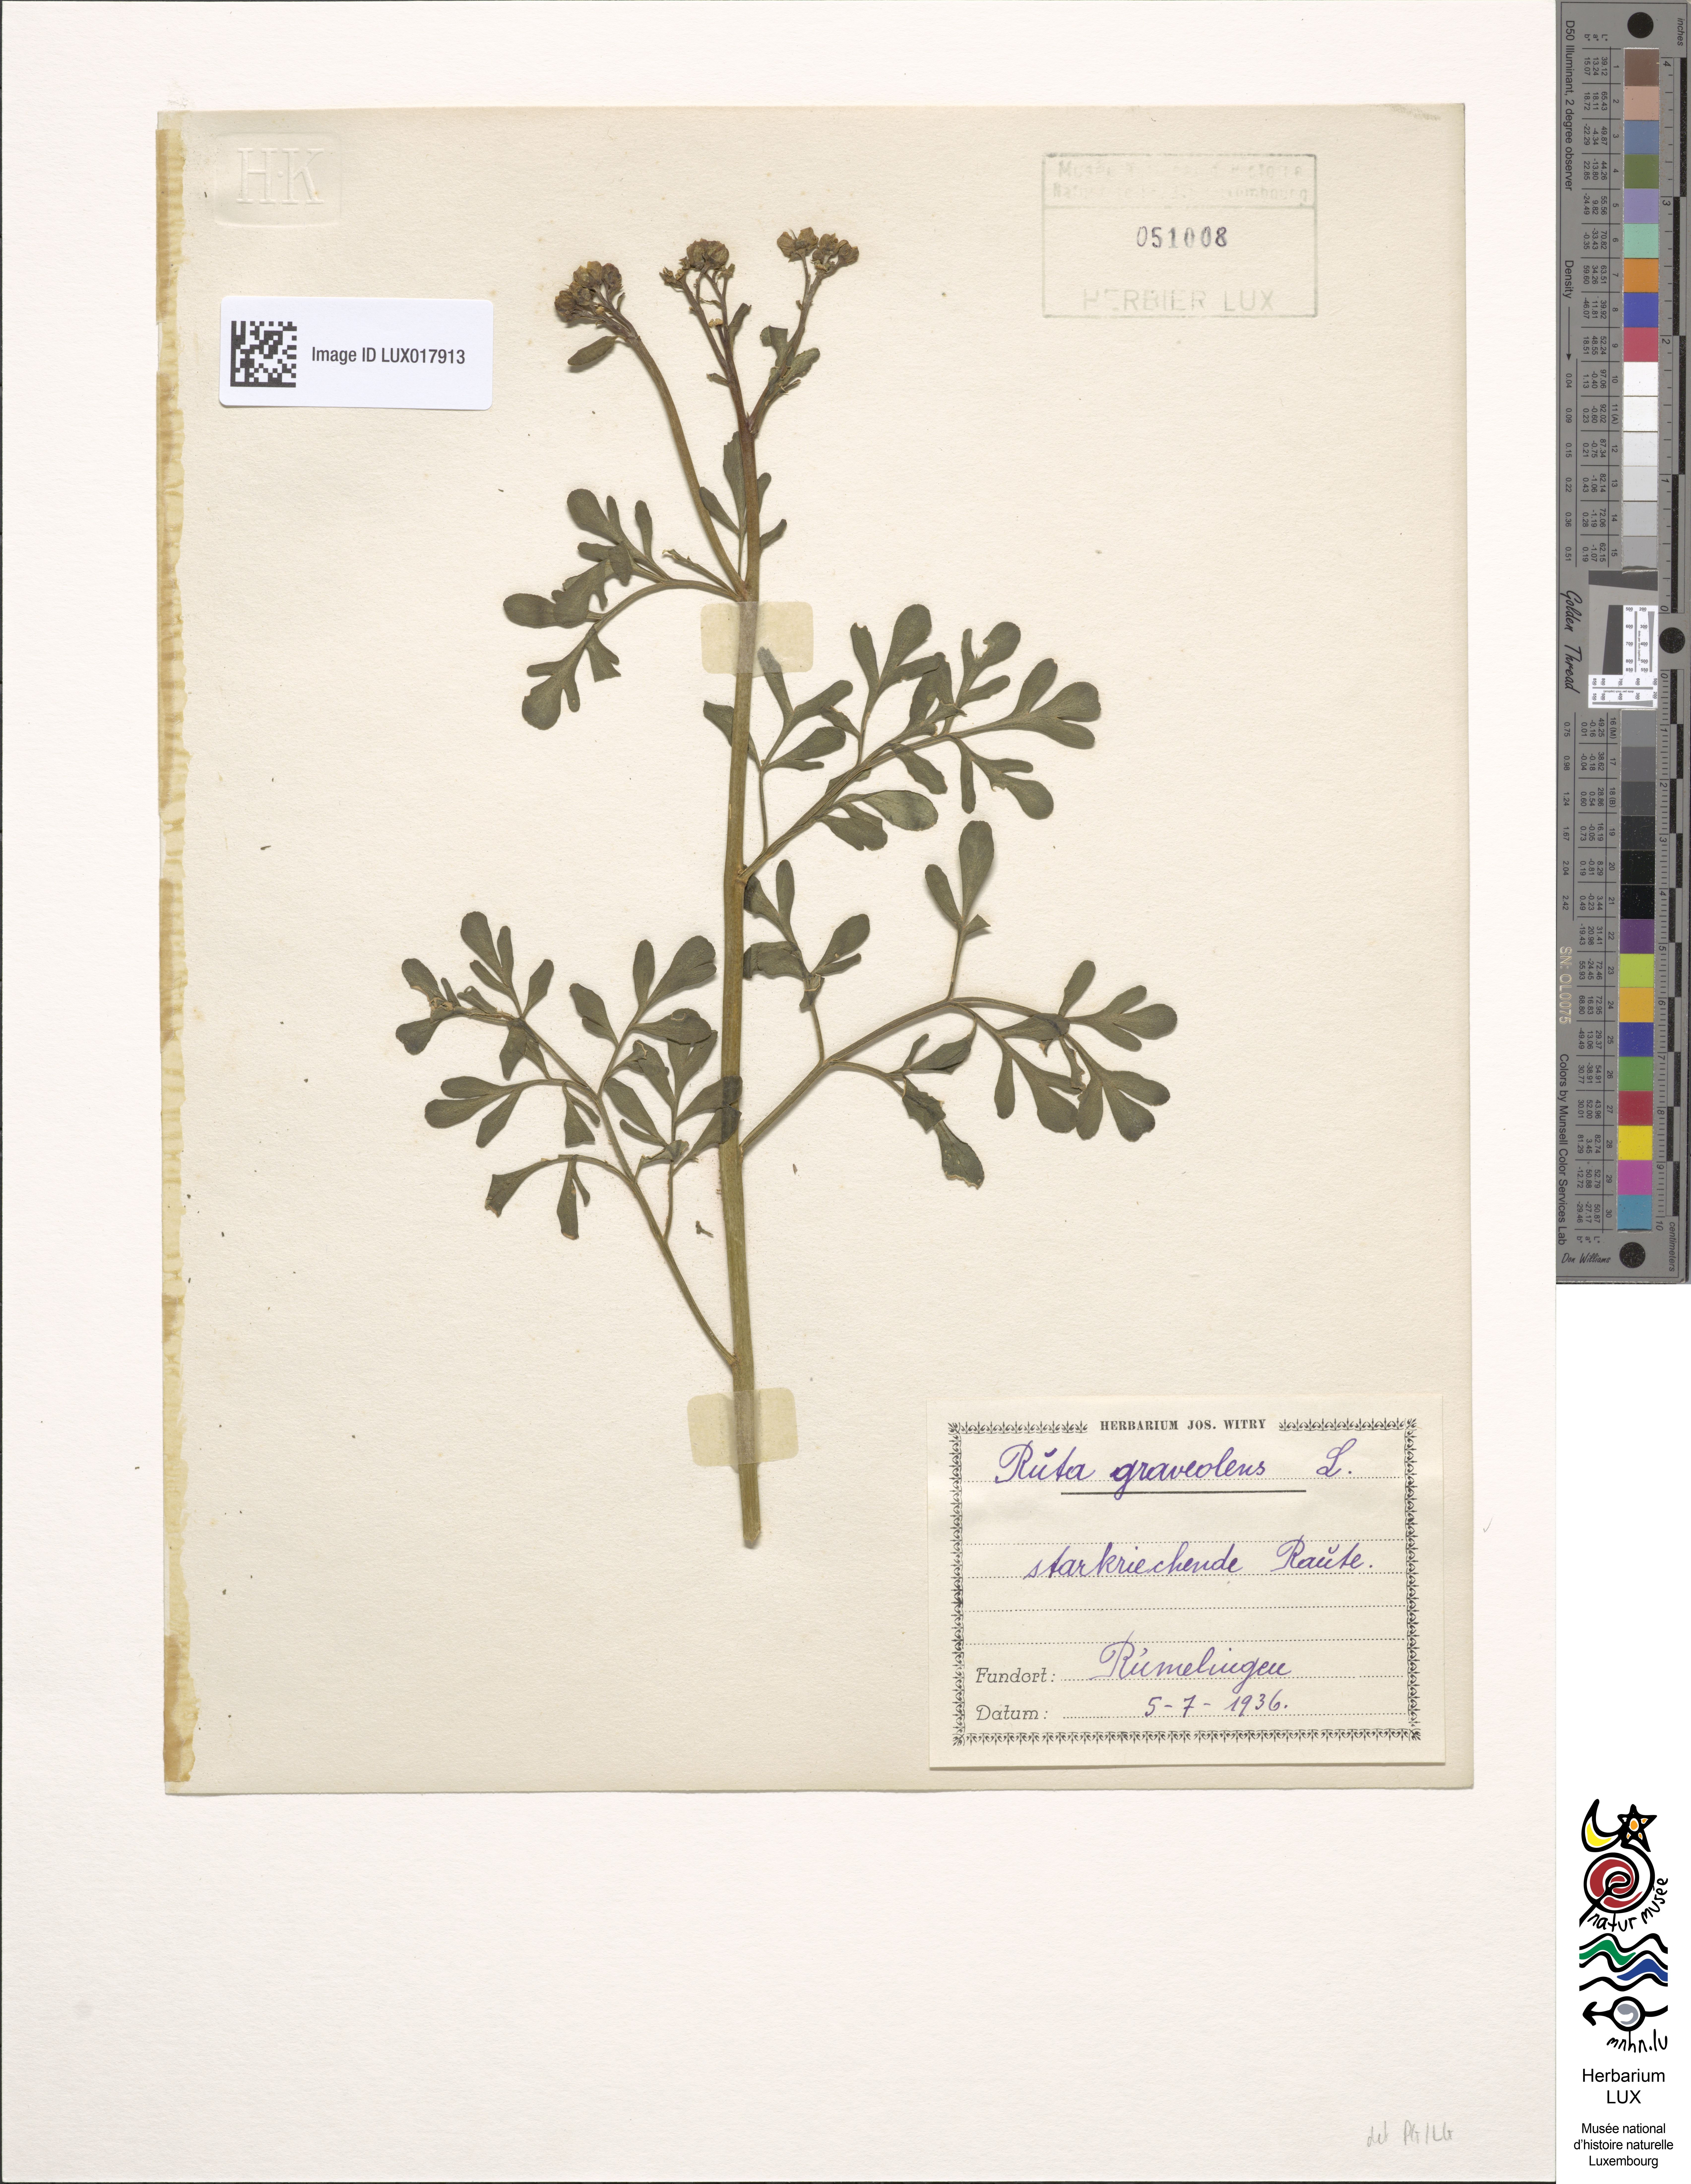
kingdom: Plantae
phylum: Tracheophyta
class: Magnoliopsida
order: Sapindales
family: Rutaceae
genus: Ruta
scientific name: Ruta graveolens
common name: Common rue
